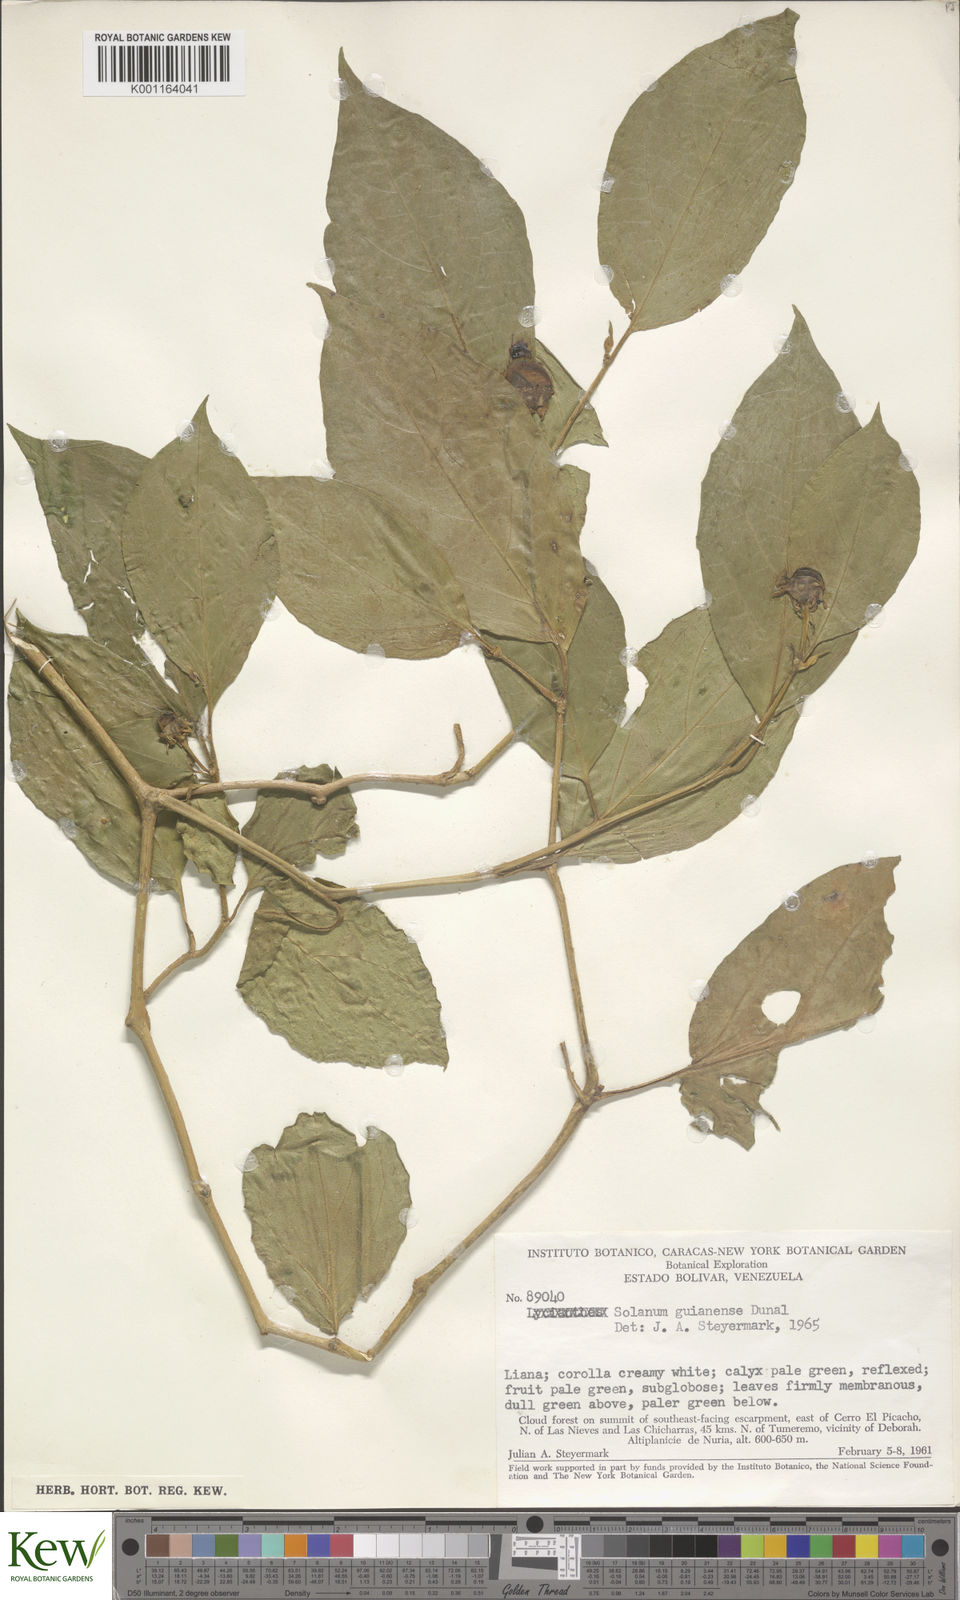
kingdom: Plantae
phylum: Tracheophyta
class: Magnoliopsida
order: Solanales
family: Solanaceae
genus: Lycianthes
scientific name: Lycianthes pauciflora
